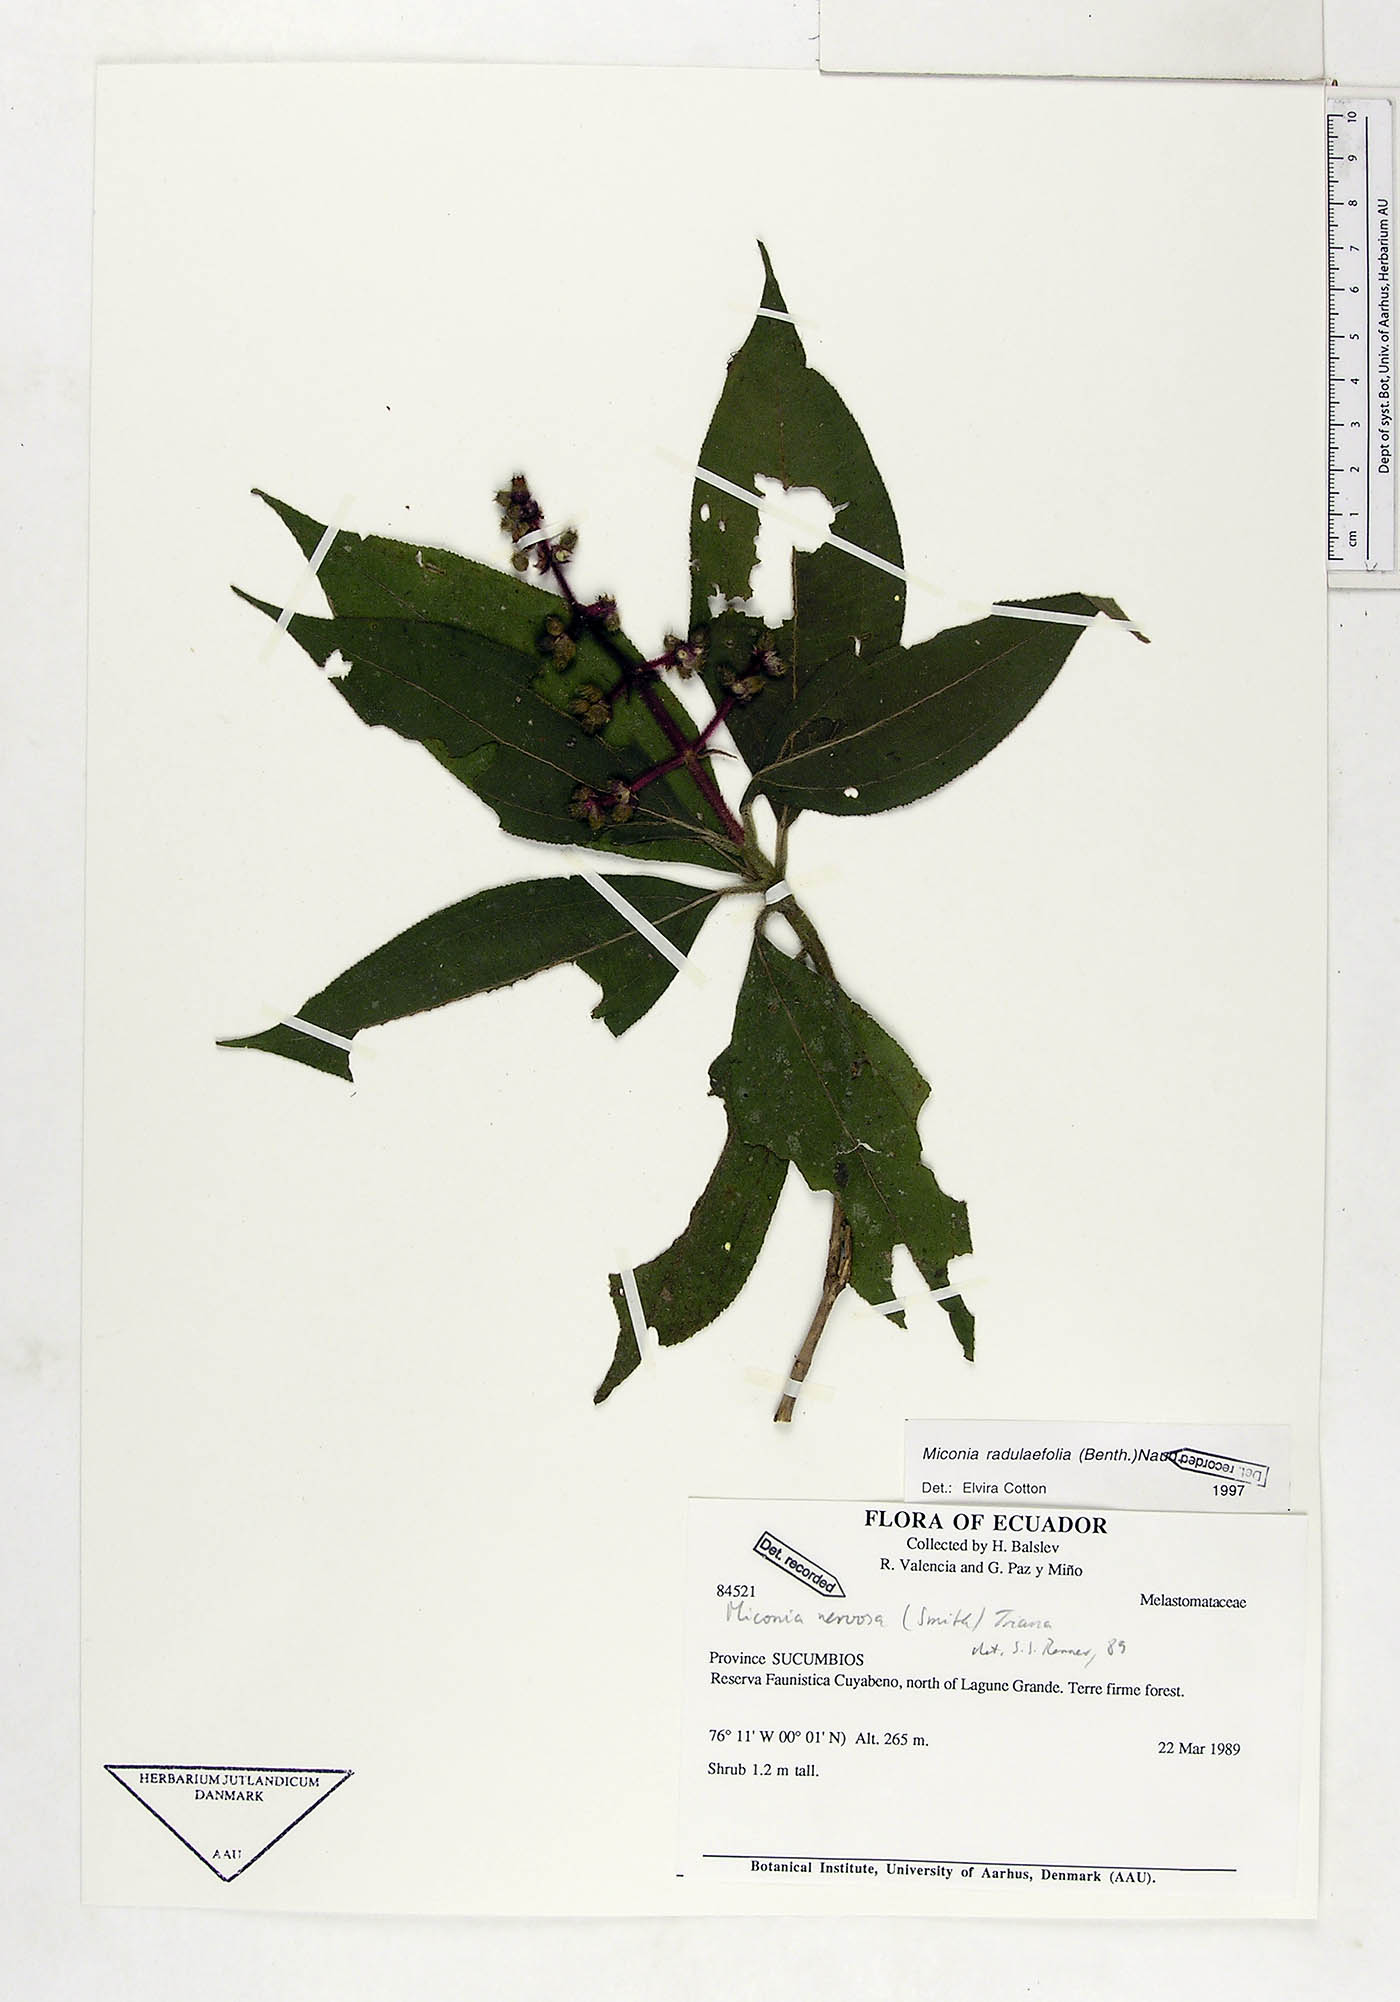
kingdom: Plantae
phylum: Tracheophyta
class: Magnoliopsida
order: Myrtales
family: Melastomataceae
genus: Miconia
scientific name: Miconia radulifolia
